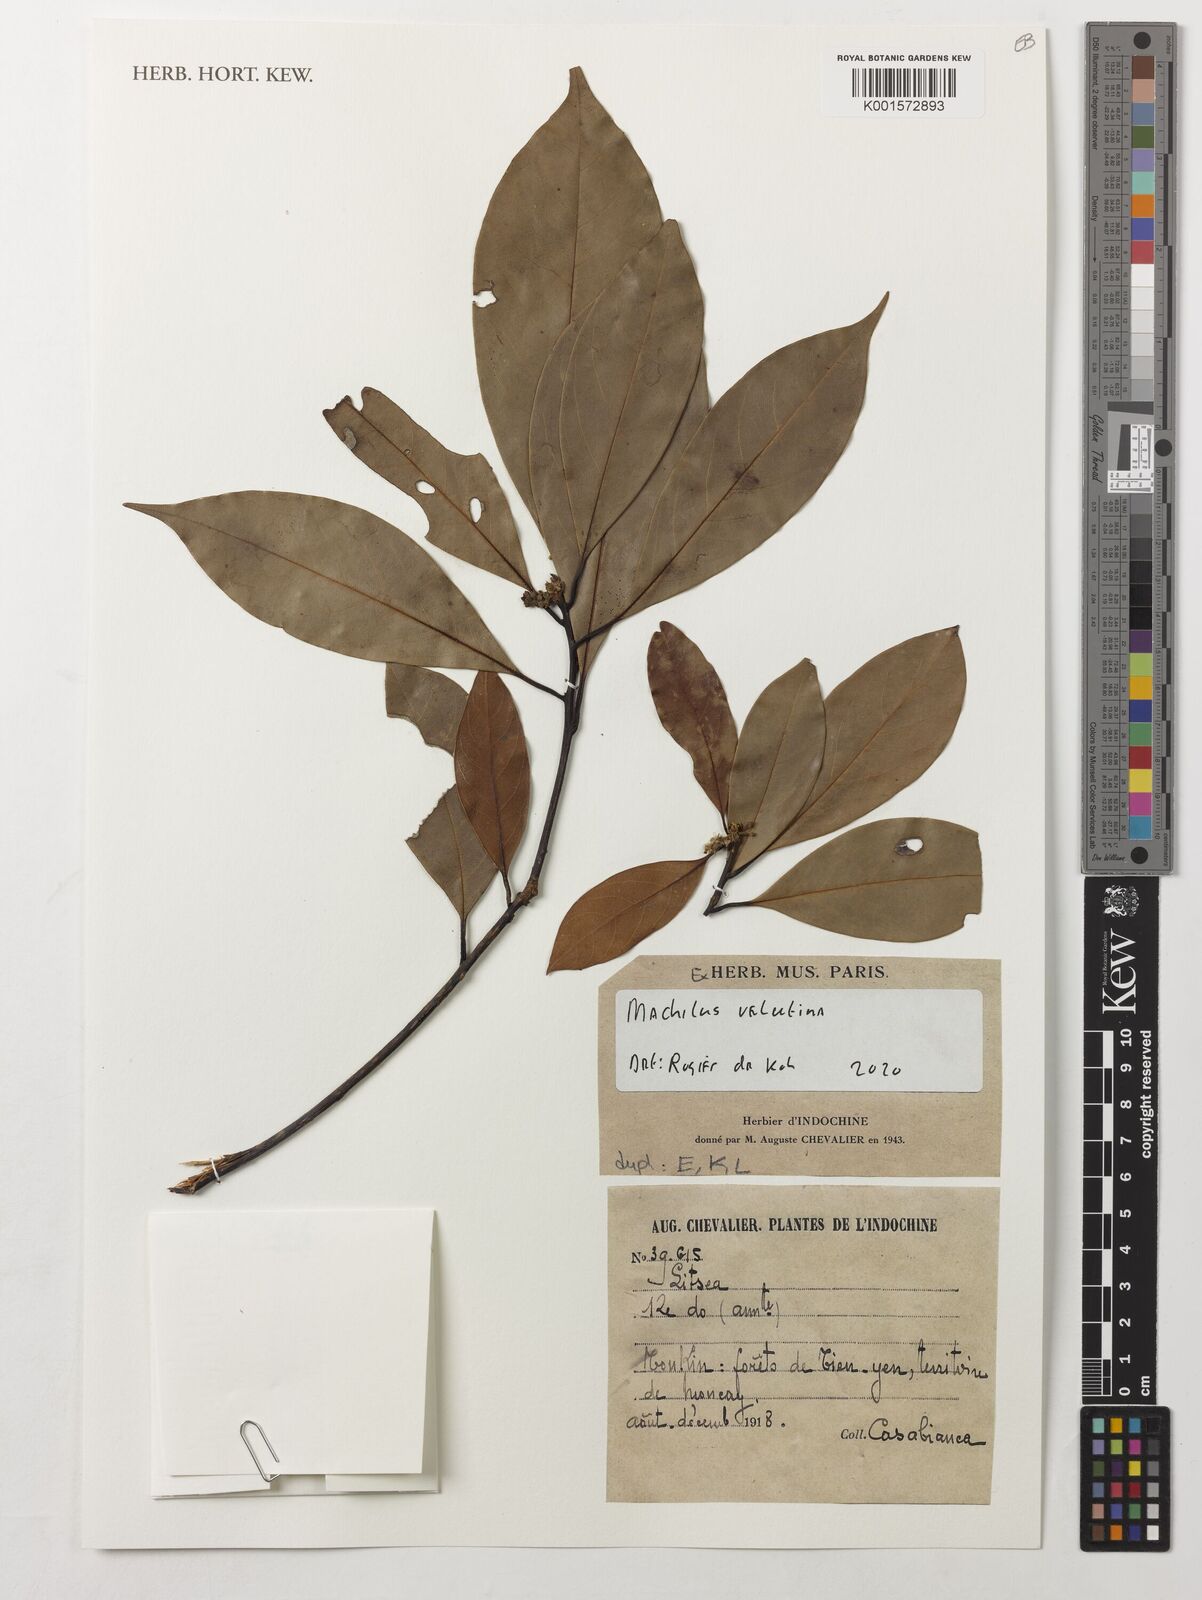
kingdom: Plantae
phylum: Tracheophyta
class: Magnoliopsida
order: Laurales
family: Lauraceae
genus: Machilus
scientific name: Machilus velutina
